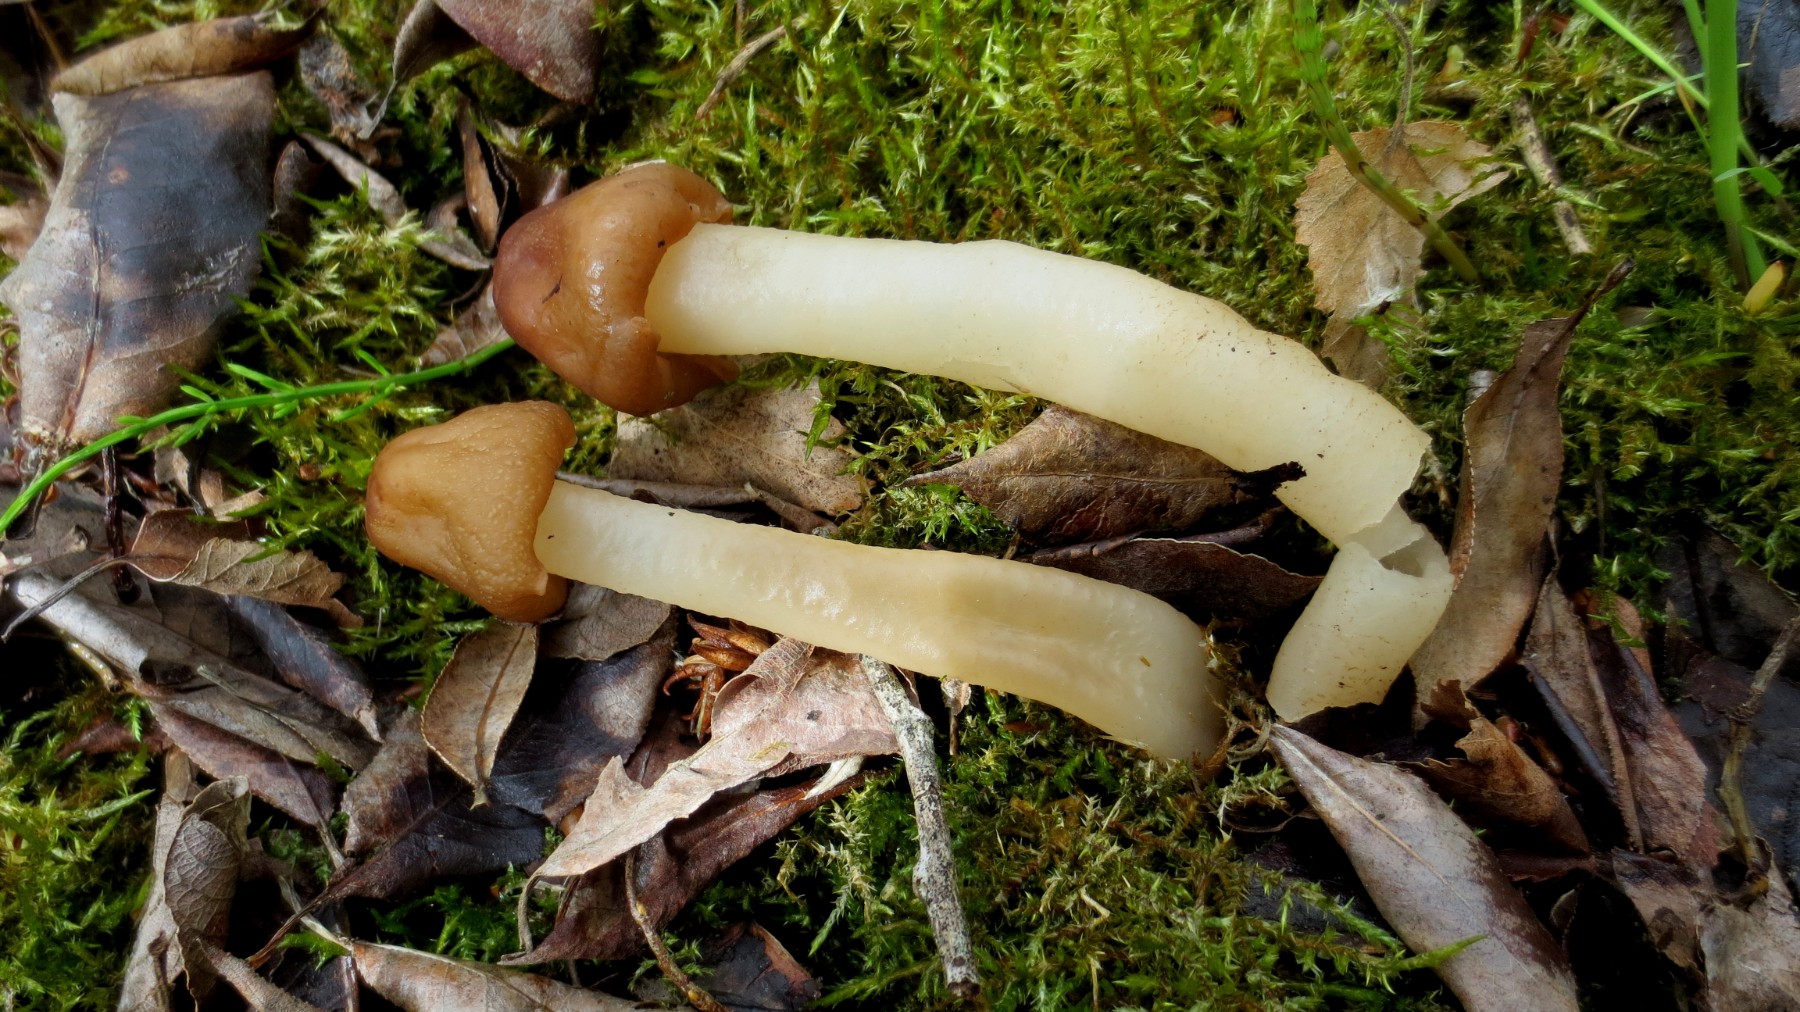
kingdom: Fungi
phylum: Ascomycota
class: Pezizomycetes
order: Pezizales
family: Morchellaceae
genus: Verpa
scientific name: Verpa conica
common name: glat klokkemorkel
